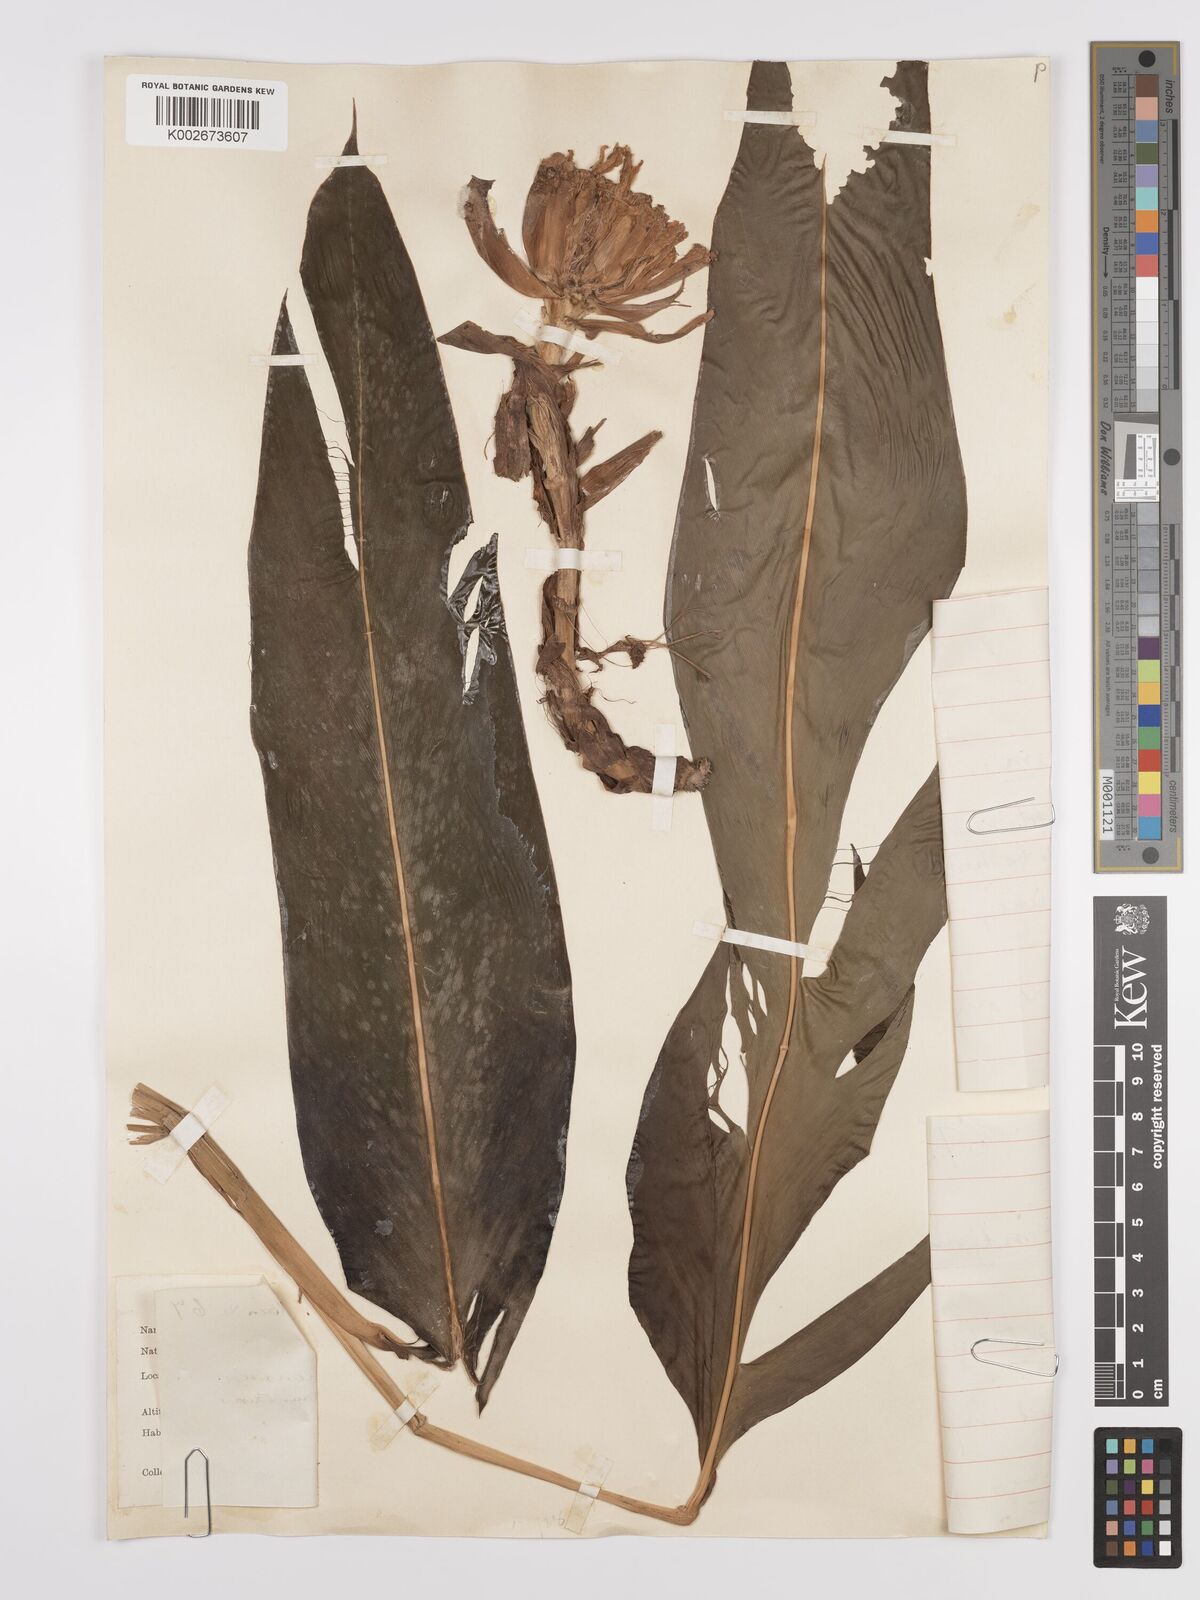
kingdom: Plantae
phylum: Tracheophyta
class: Liliopsida
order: Zingiberales
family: Zingiberaceae
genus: Amomum
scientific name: Amomum
